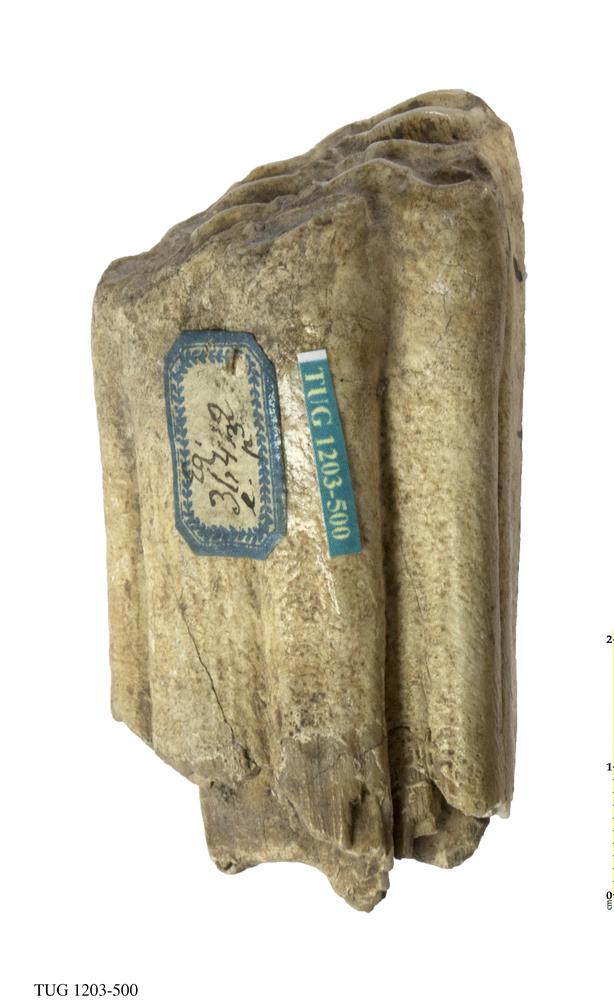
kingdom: Animalia
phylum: Chordata
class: Mammalia
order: Perissodactyla
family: Equidae
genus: Equus
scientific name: Equus
